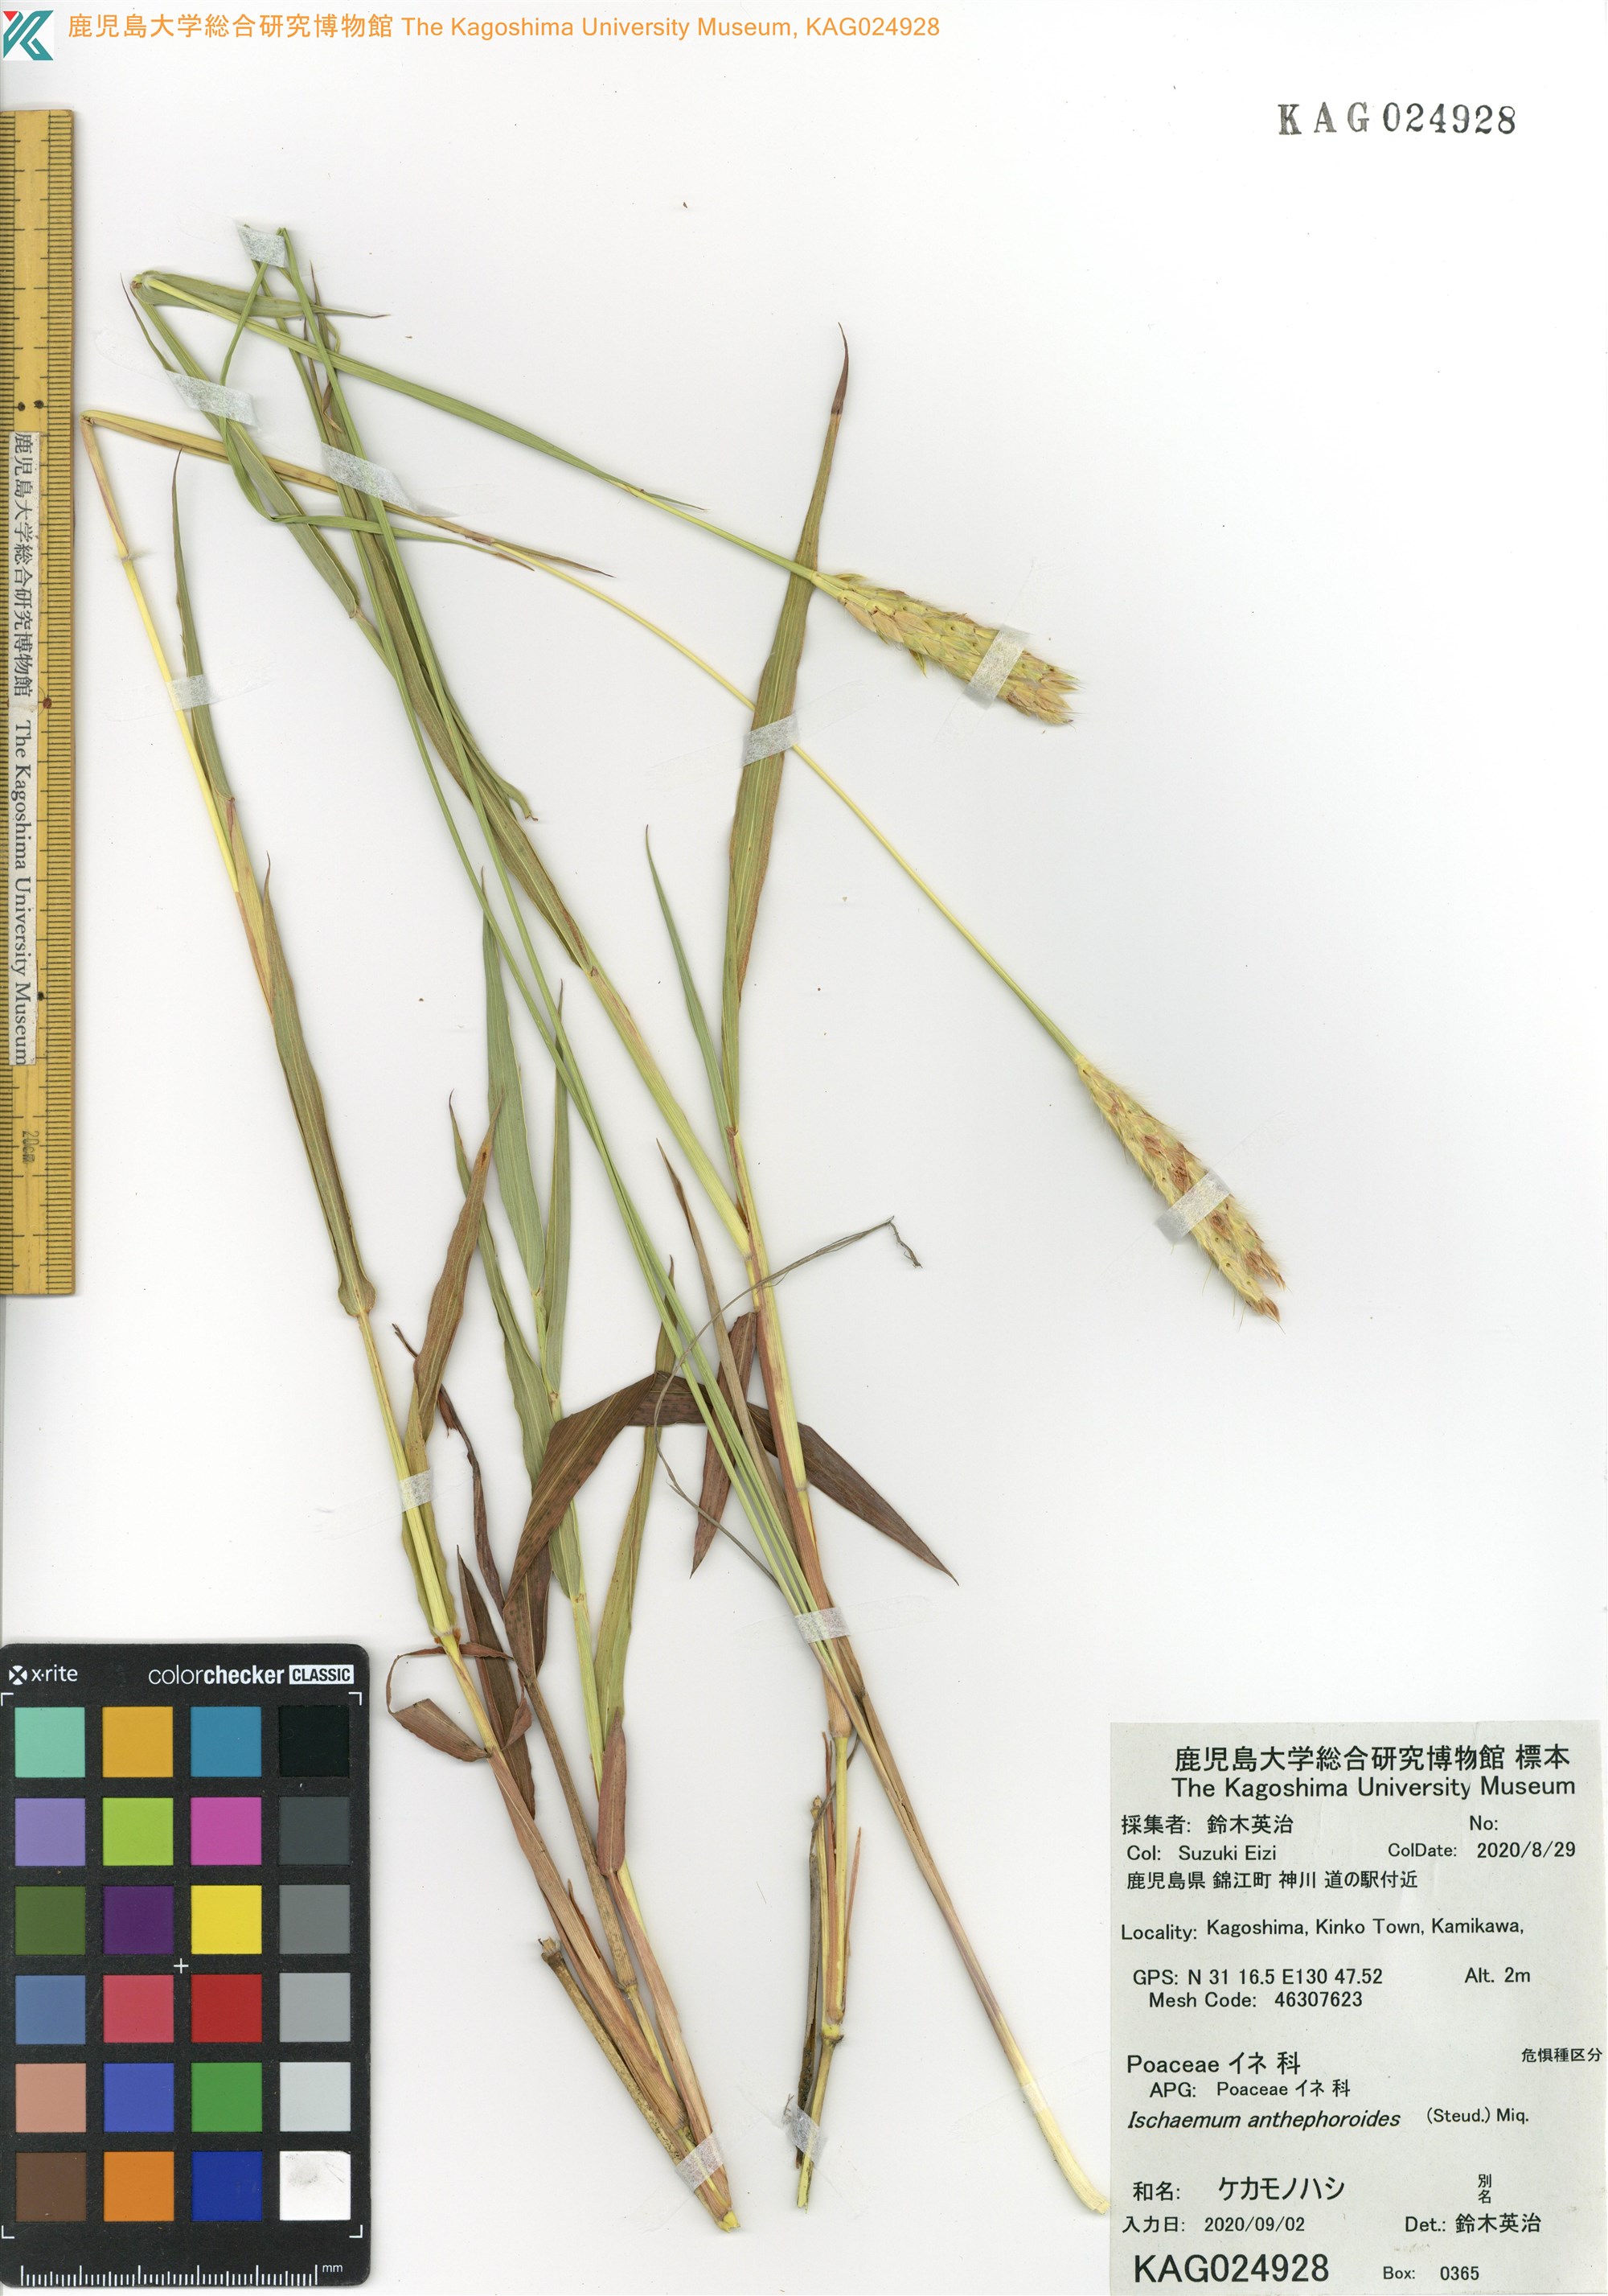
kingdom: Plantae
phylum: Tracheophyta
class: Liliopsida
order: Poales
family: Poaceae
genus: Ischaemum
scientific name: Ischaemum anthephoroides
